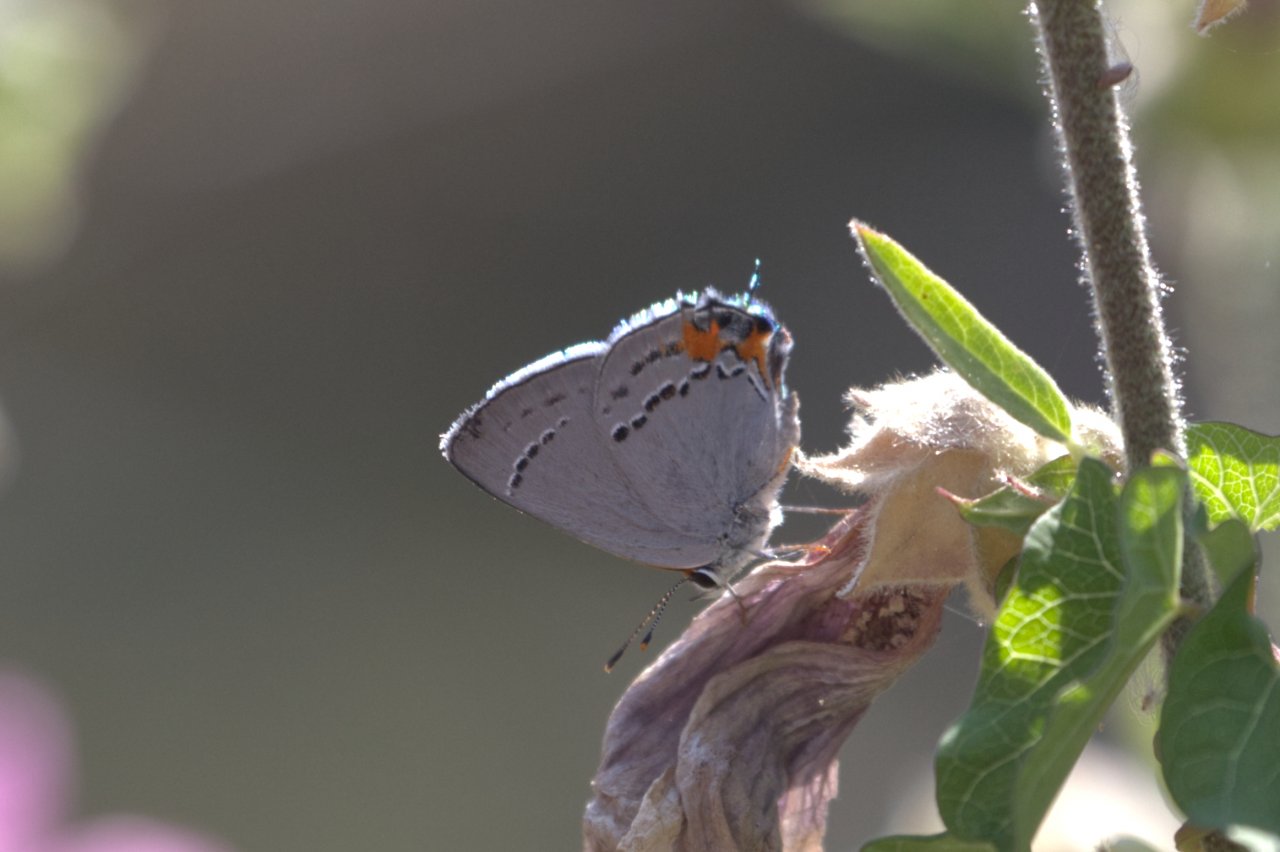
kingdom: Animalia
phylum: Arthropoda
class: Insecta
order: Lepidoptera
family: Lycaenidae
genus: Strymon
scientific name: Strymon melinus
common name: Gray Hairstreak
